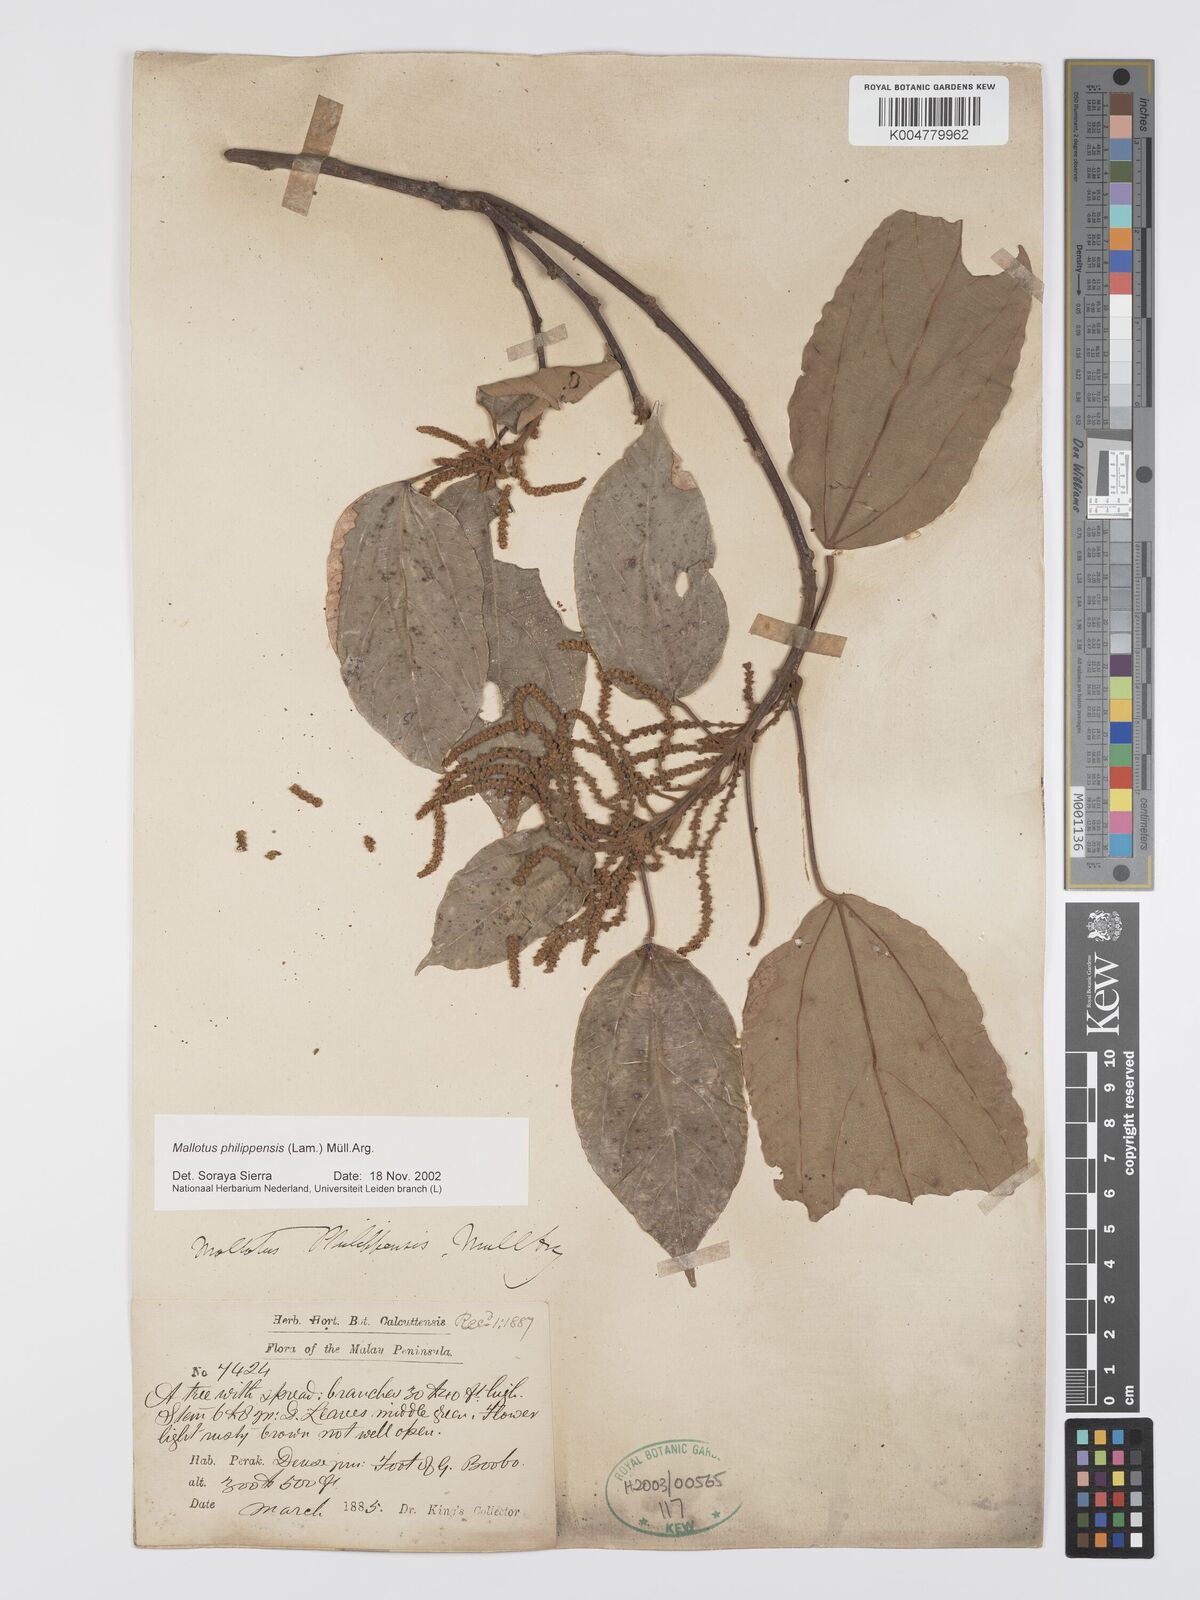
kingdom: Plantae
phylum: Tracheophyta
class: Magnoliopsida
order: Malpighiales
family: Euphorbiaceae
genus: Mallotus
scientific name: Mallotus philippensis
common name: Kamala tree
